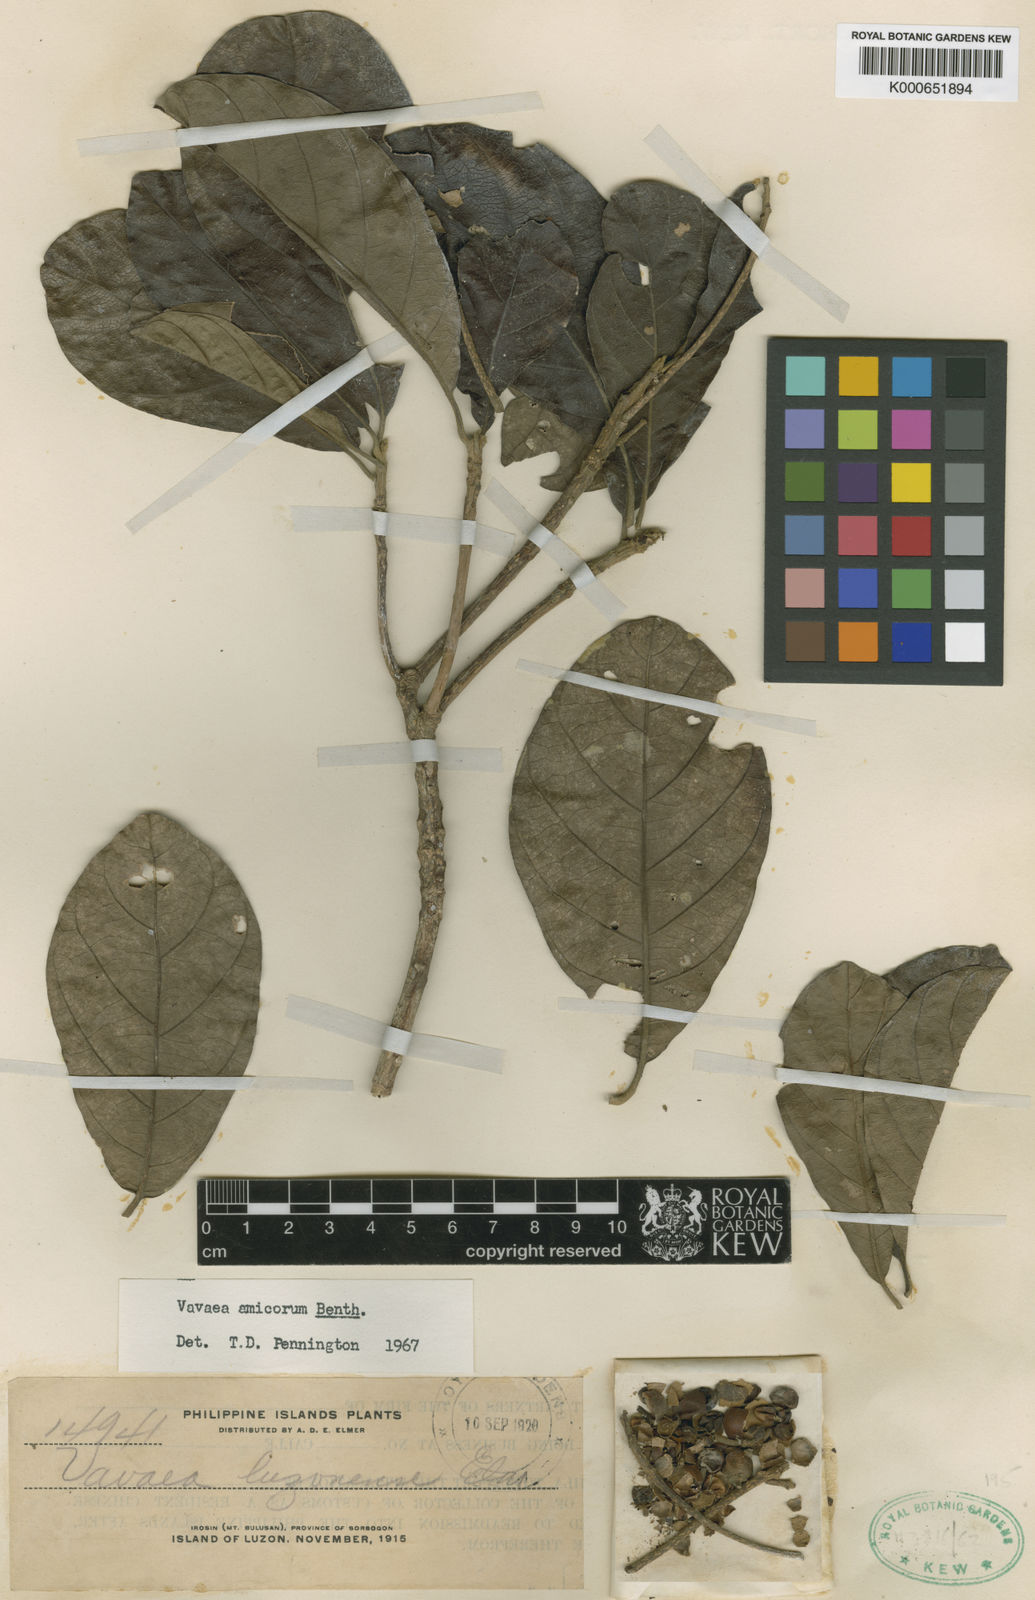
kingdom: Plantae
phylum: Tracheophyta
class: Magnoliopsida
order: Sapindales
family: Meliaceae
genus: Vavaea
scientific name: Vavaea amicorum
